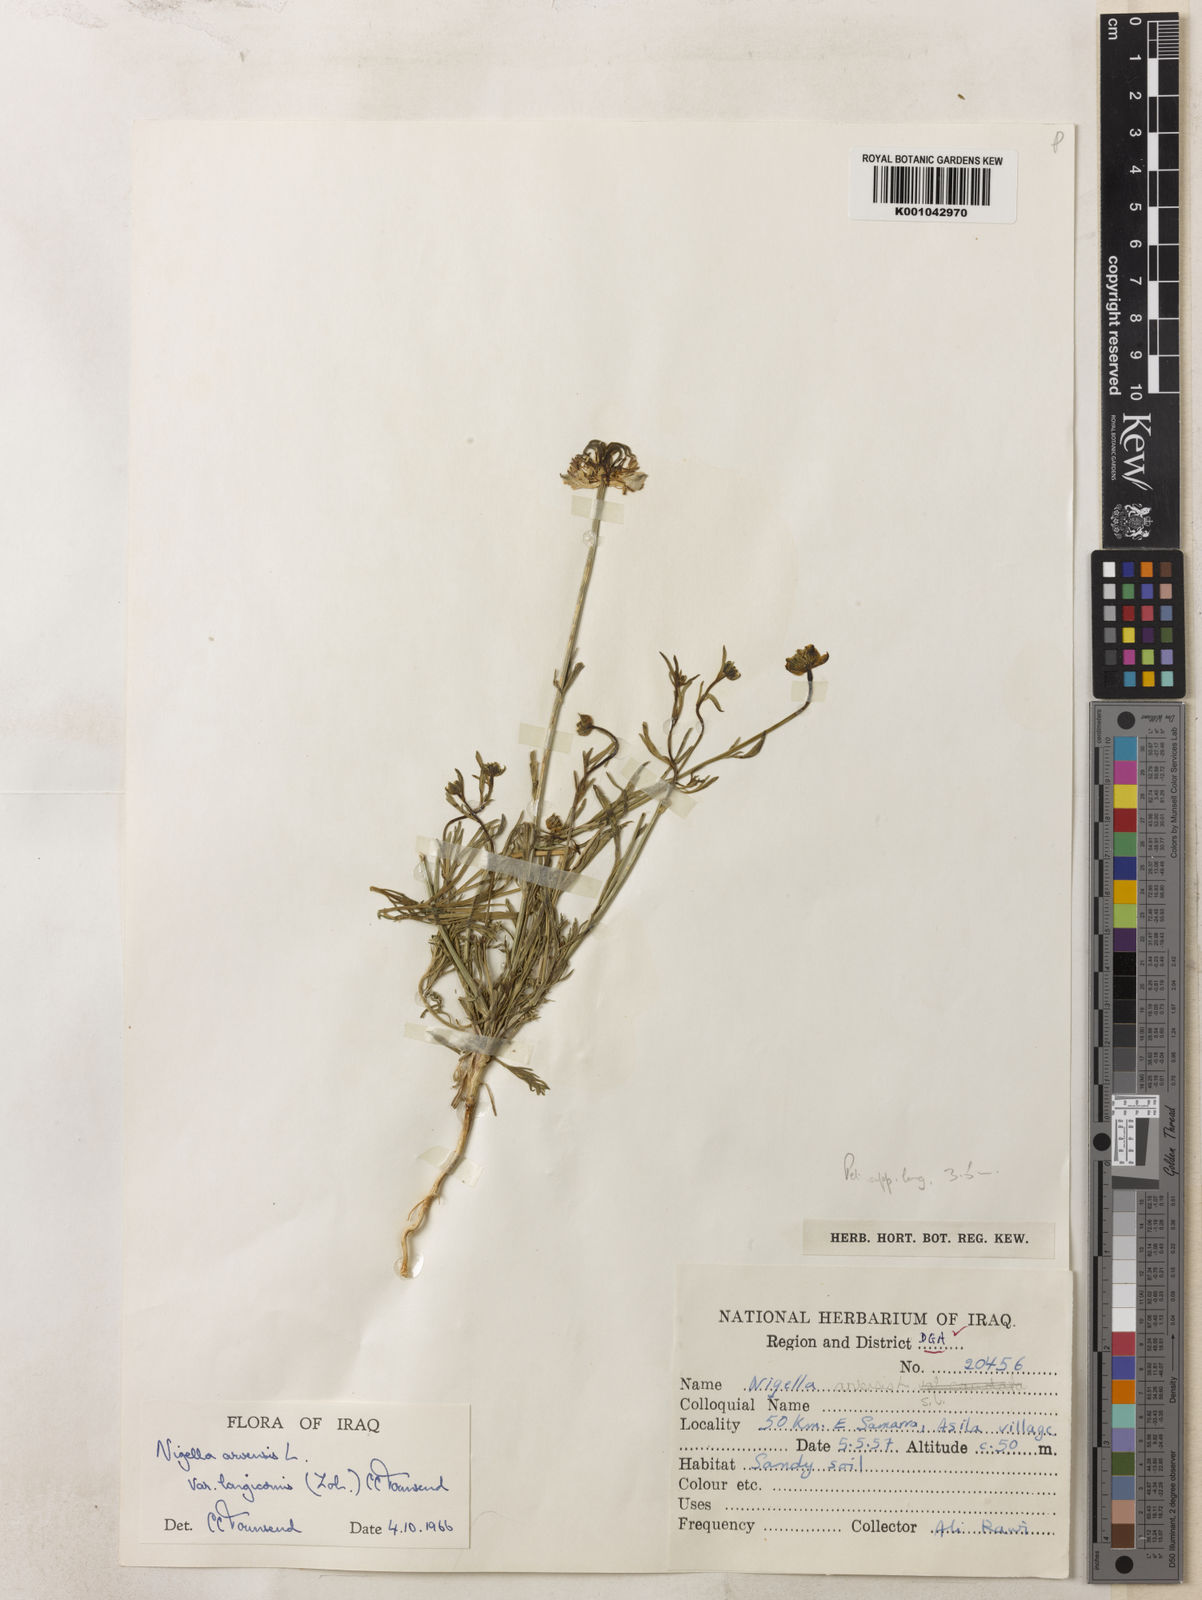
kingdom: Plantae
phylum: Tracheophyta
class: Magnoliopsida
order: Ranunculales
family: Ranunculaceae
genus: Nigella
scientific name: Nigella arvensis
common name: Wild fennel-flower
